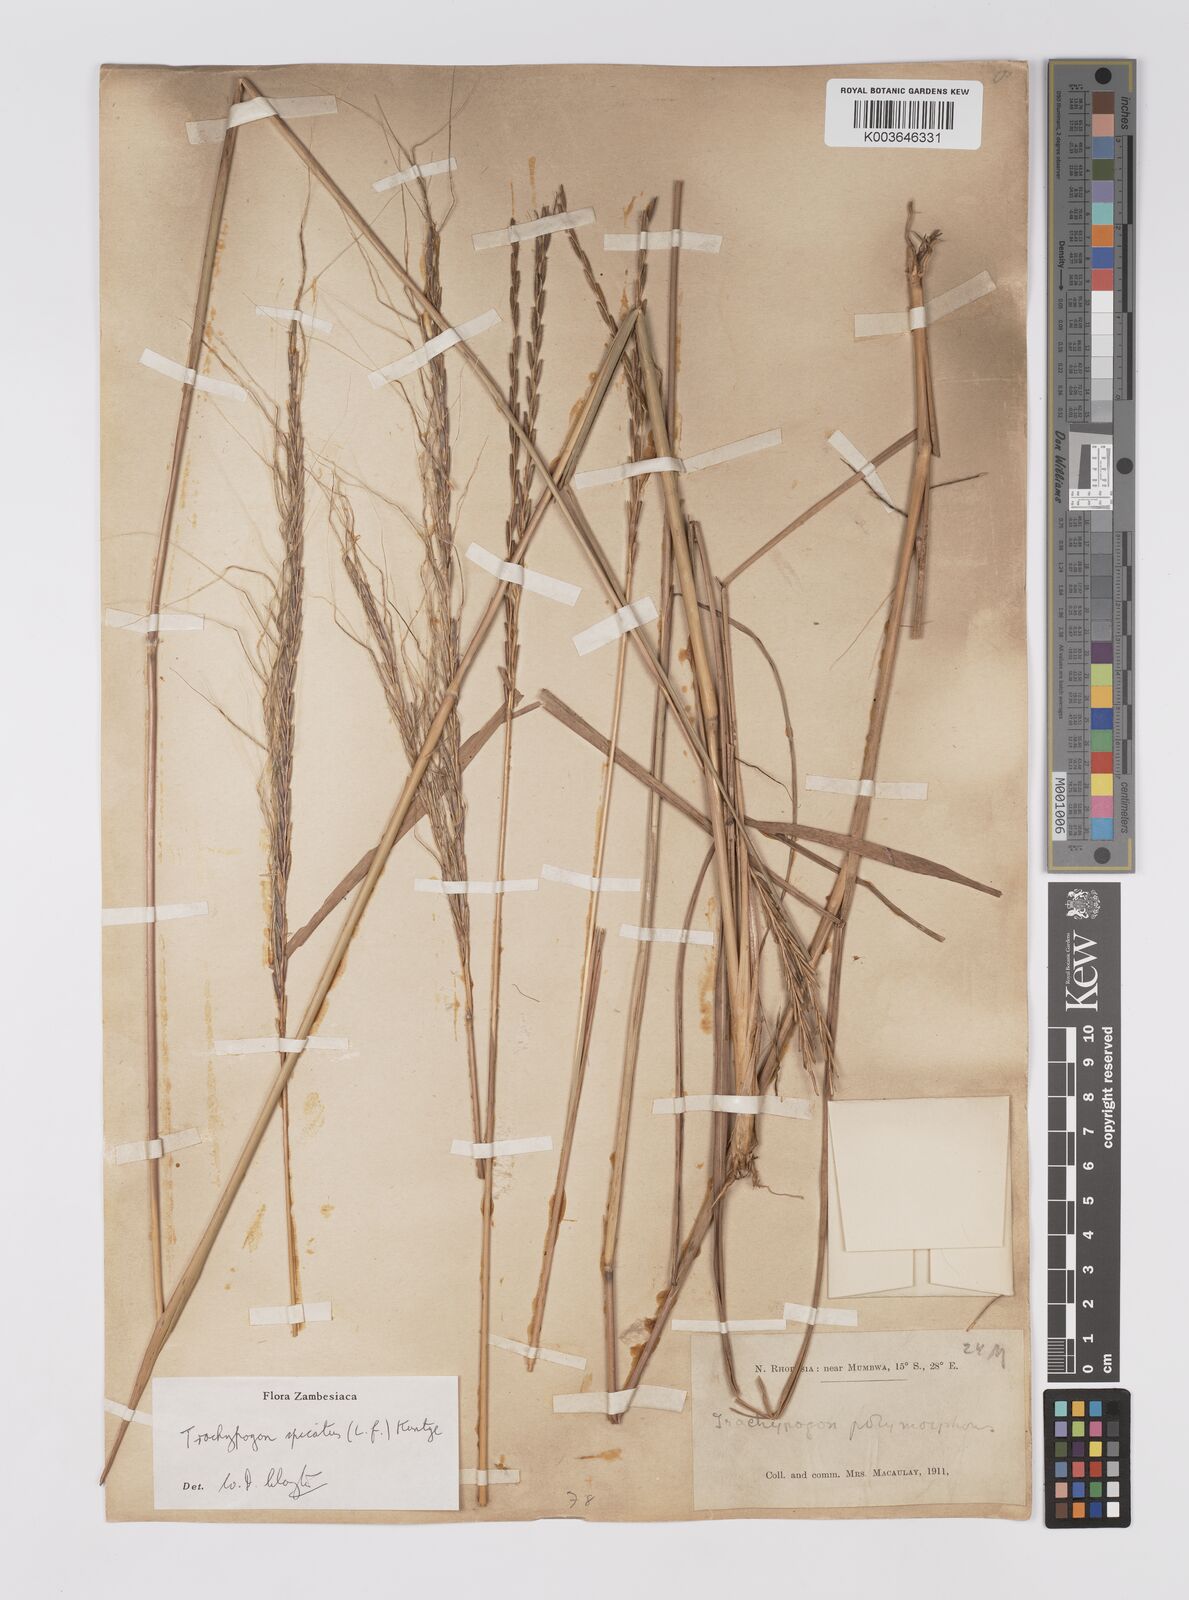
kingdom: Plantae
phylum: Tracheophyta
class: Liliopsida
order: Poales
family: Poaceae
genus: Trachypogon
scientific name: Trachypogon spicatus
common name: Crinkle-awn
